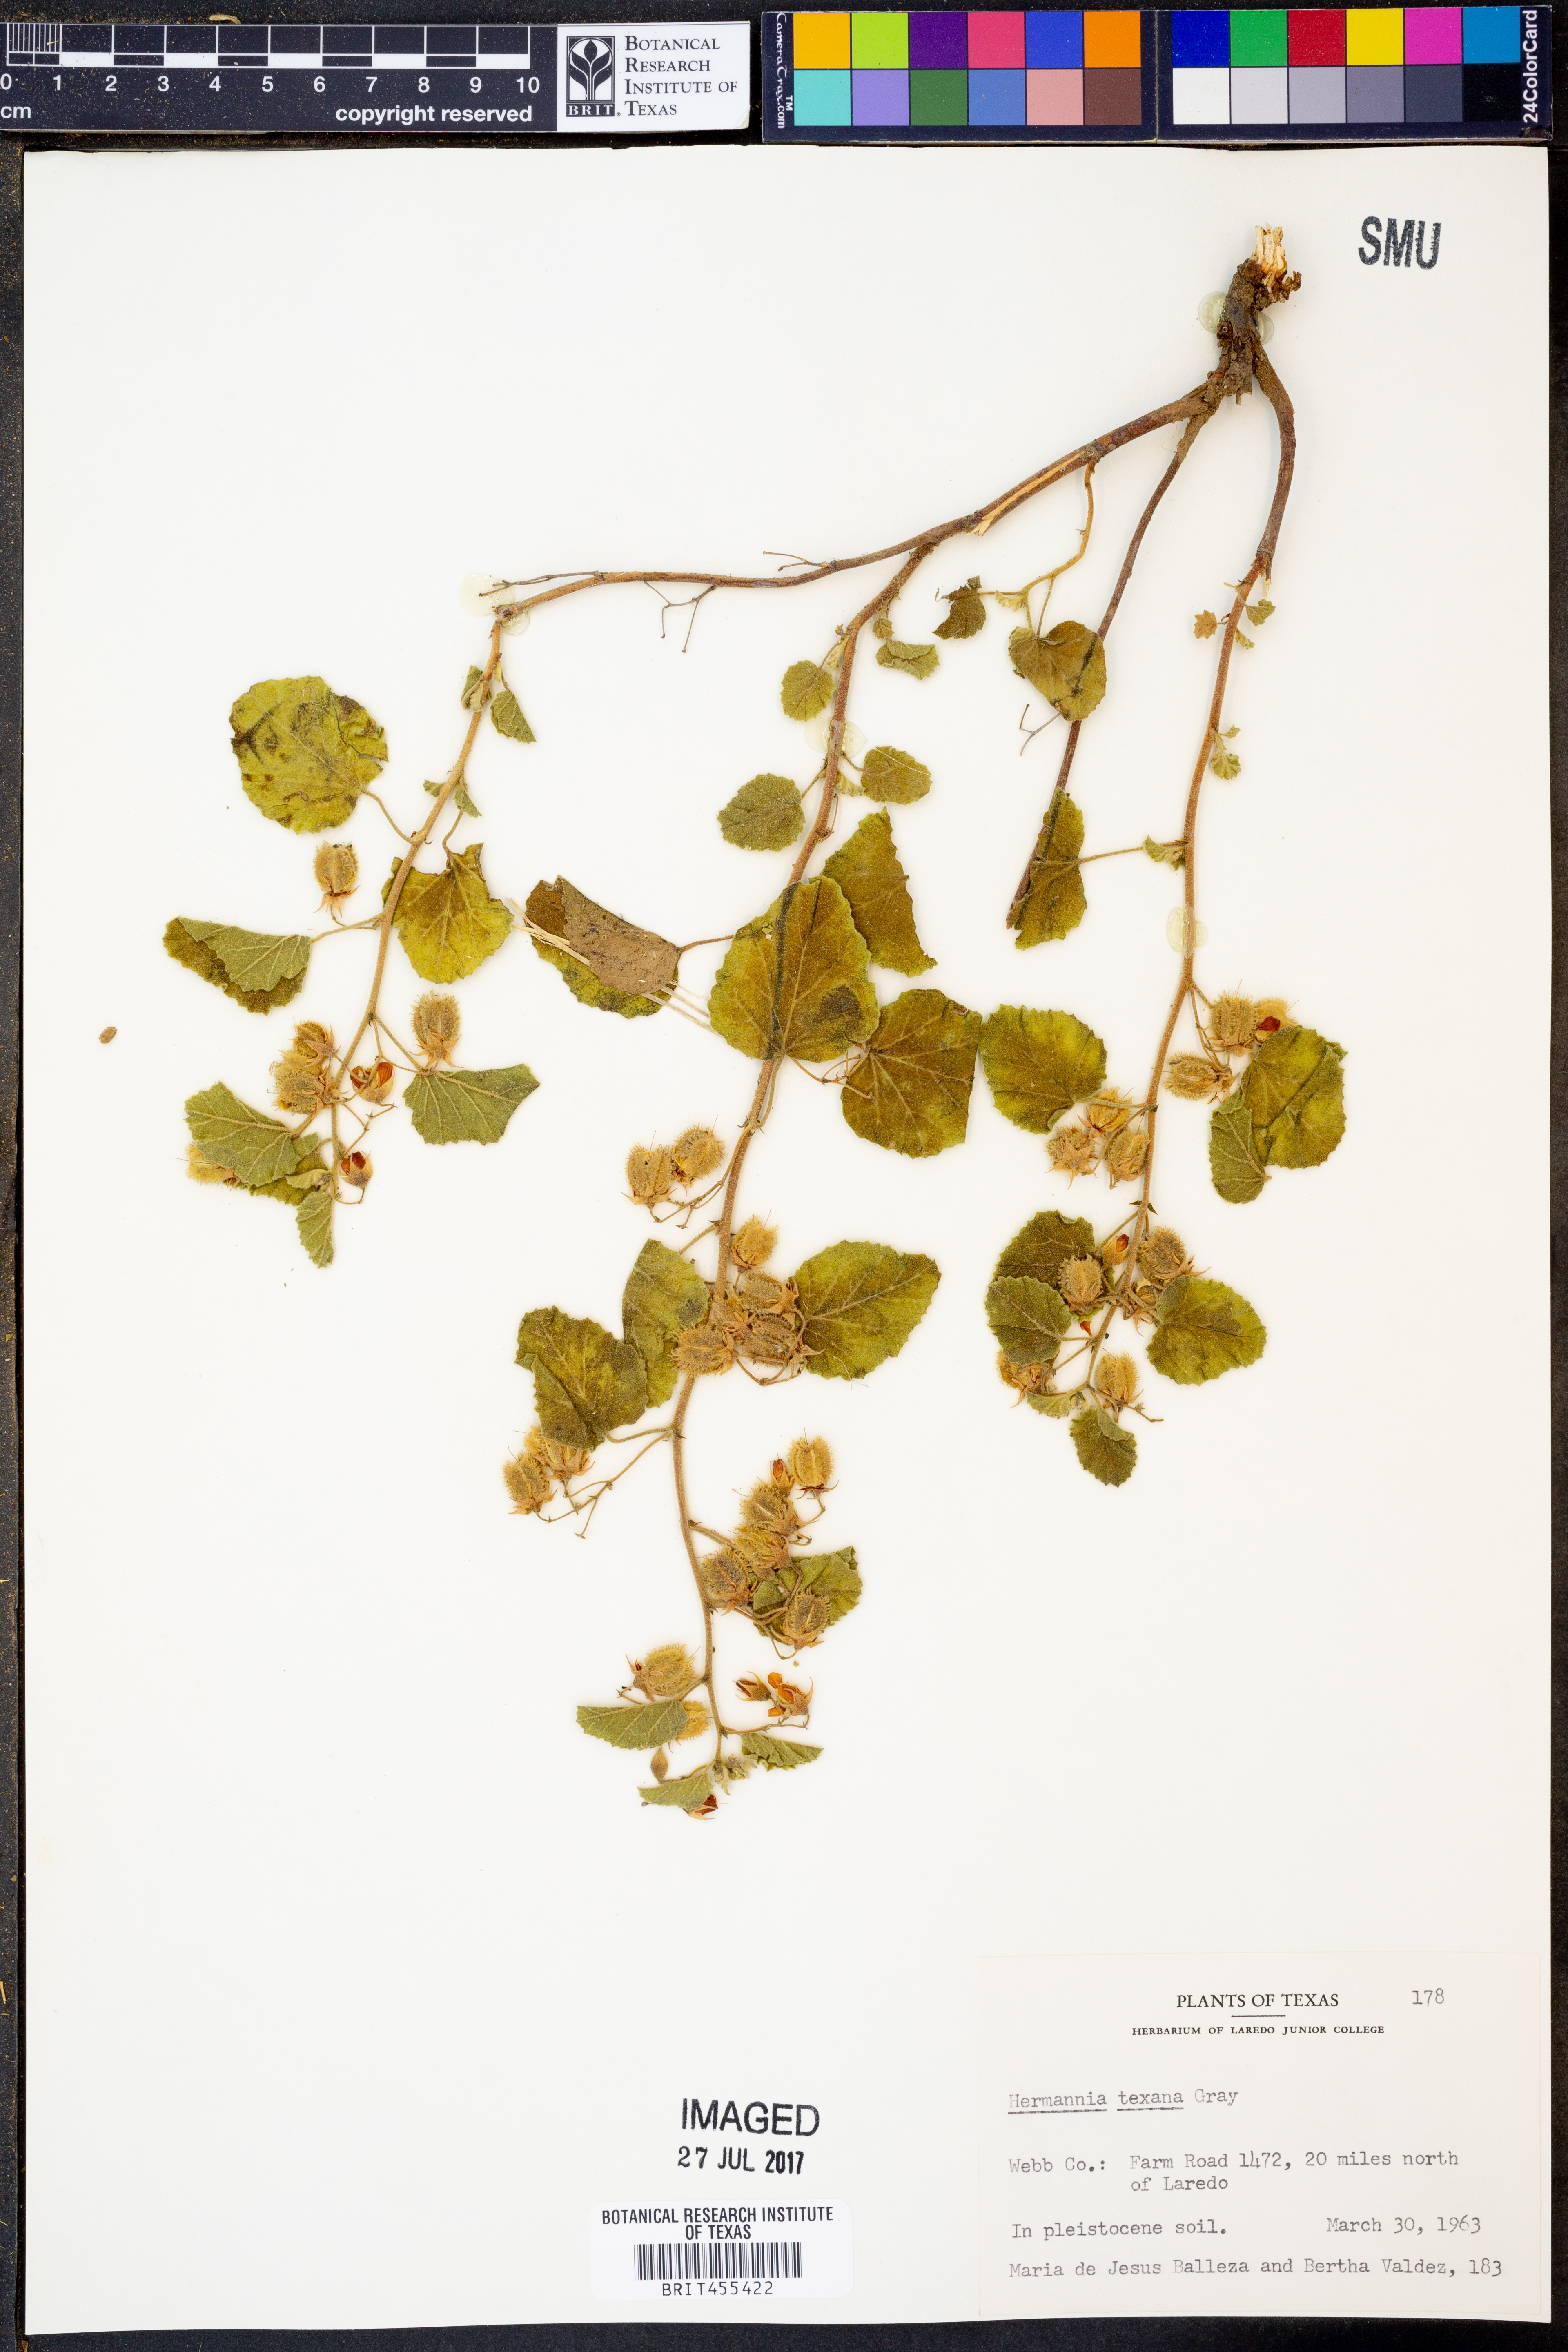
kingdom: Plantae
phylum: Tracheophyta
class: Magnoliopsida
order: Malvales
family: Malvaceae
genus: Hermannia
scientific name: Hermannia texana
